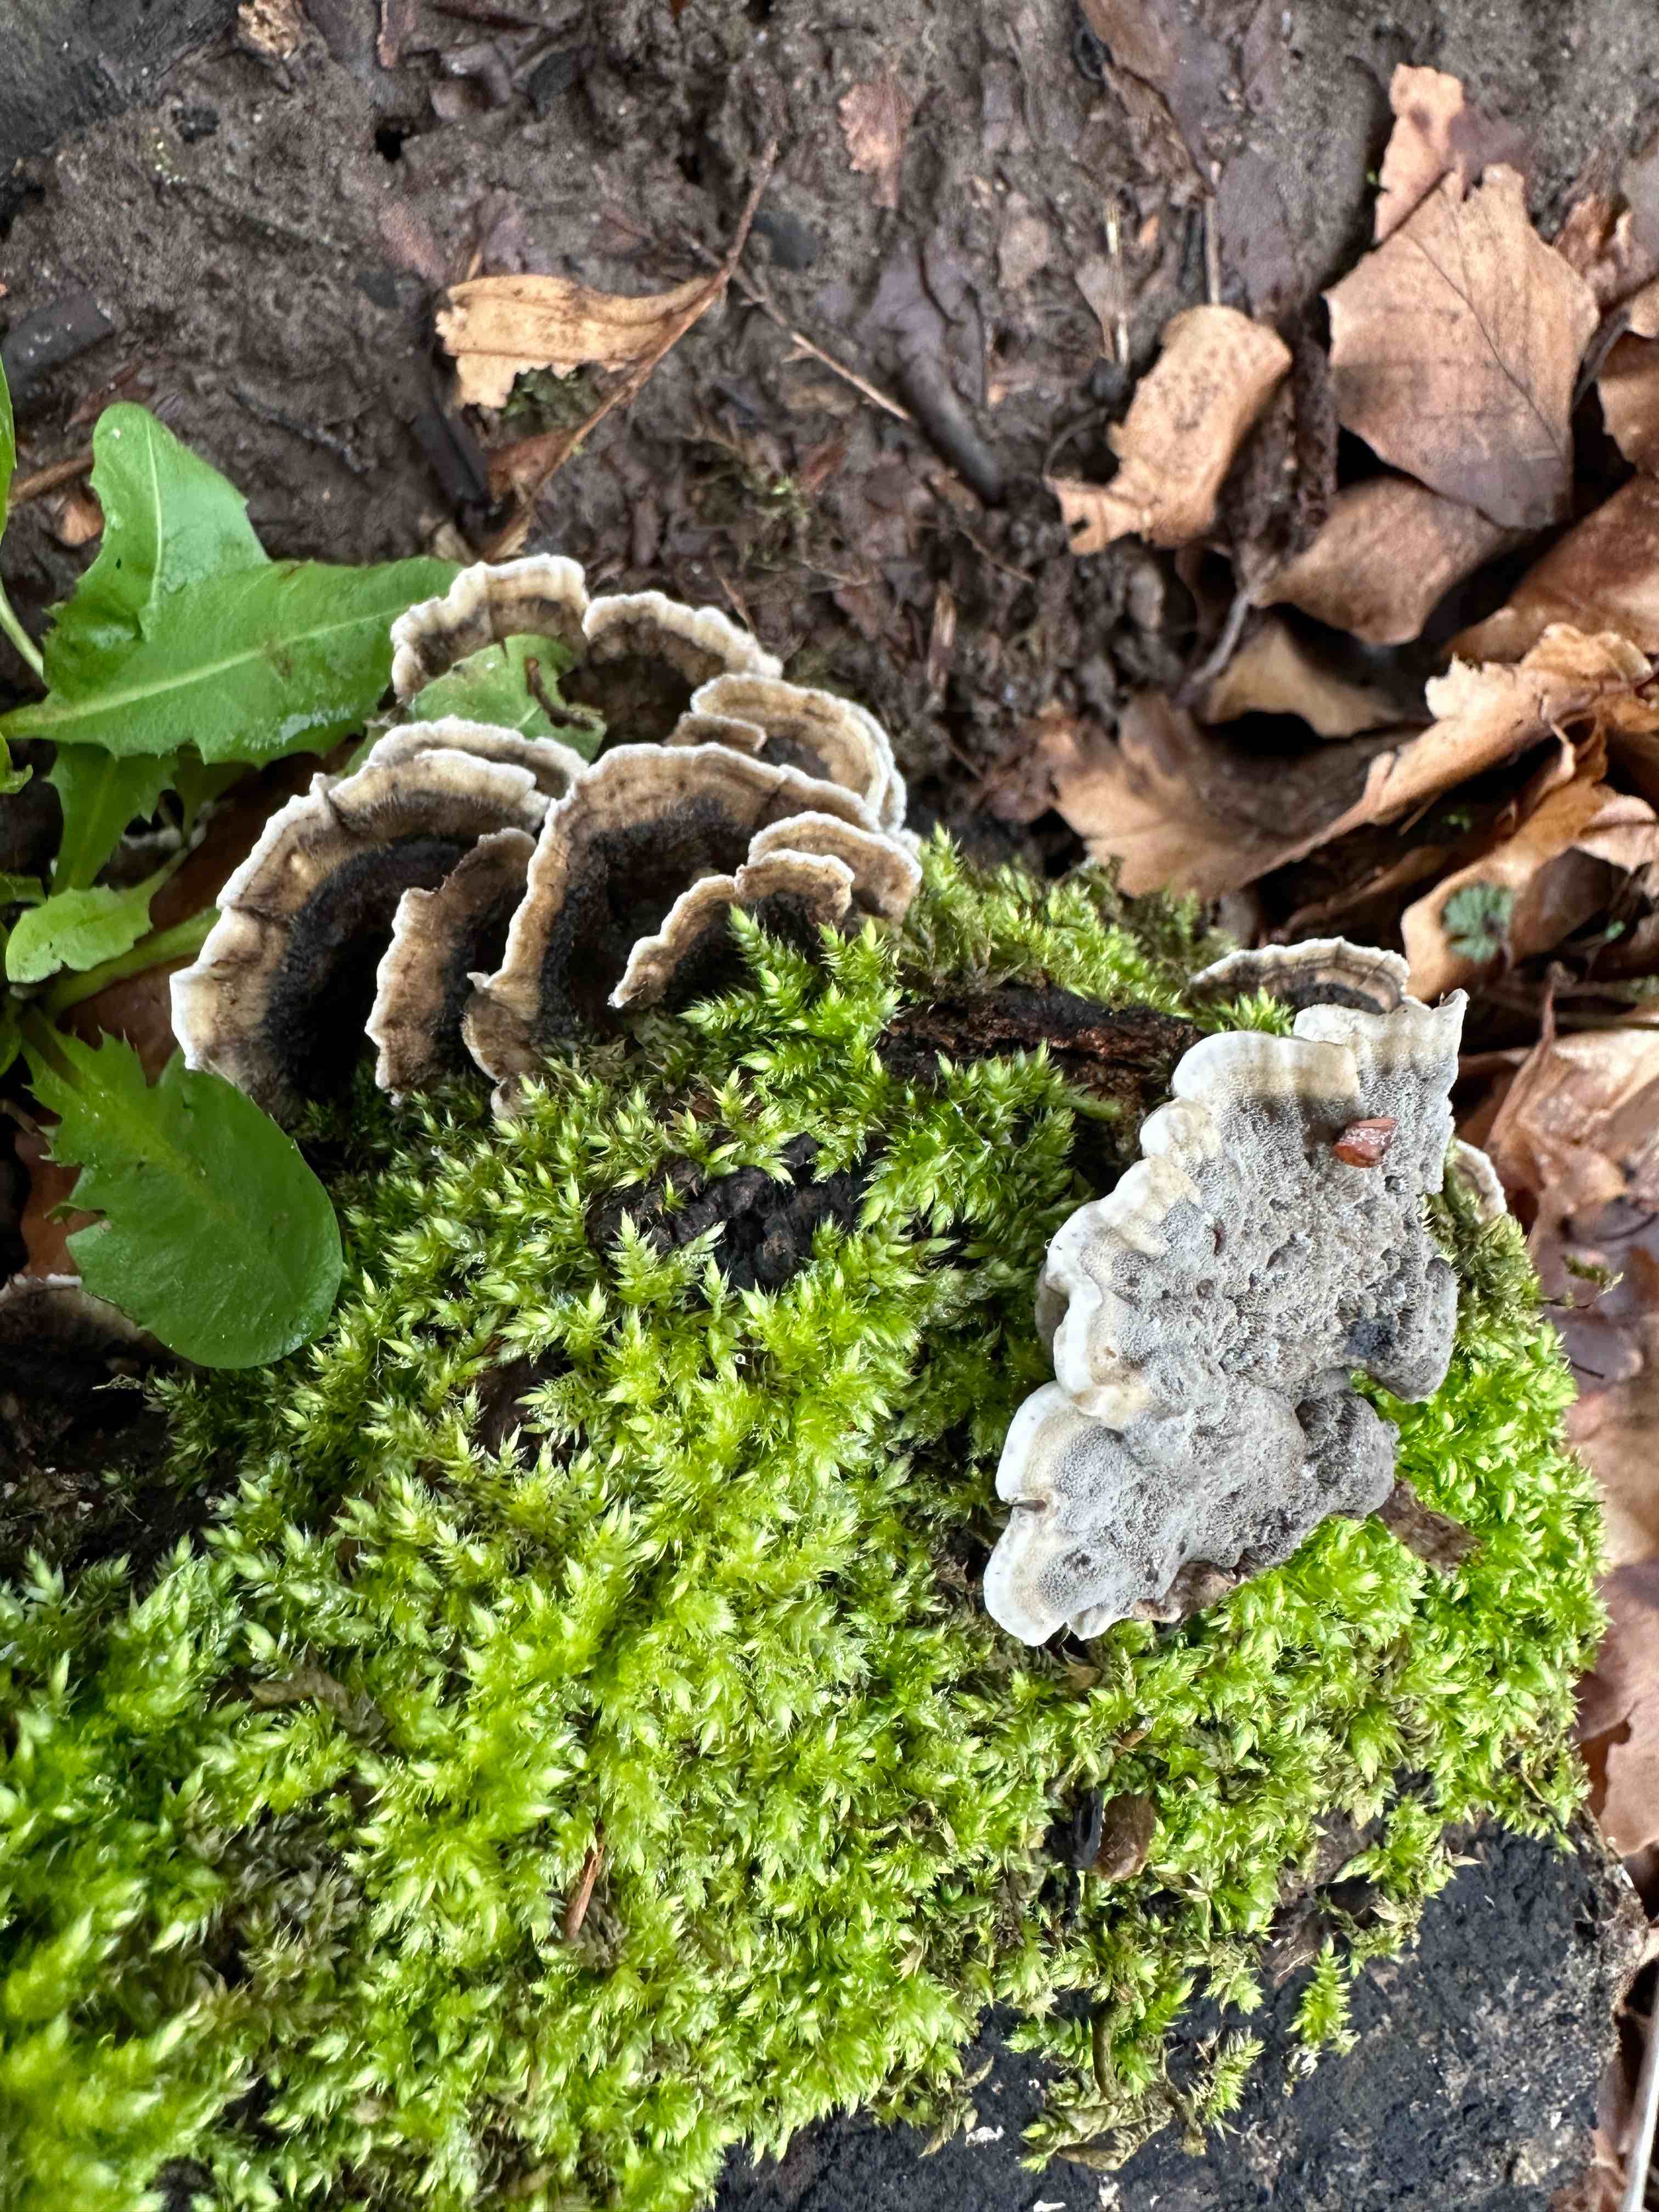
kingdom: Fungi
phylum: Basidiomycota
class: Agaricomycetes
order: Polyporales
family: Phanerochaetaceae
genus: Bjerkandera
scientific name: Bjerkandera adusta
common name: sveden sodporesvamp
